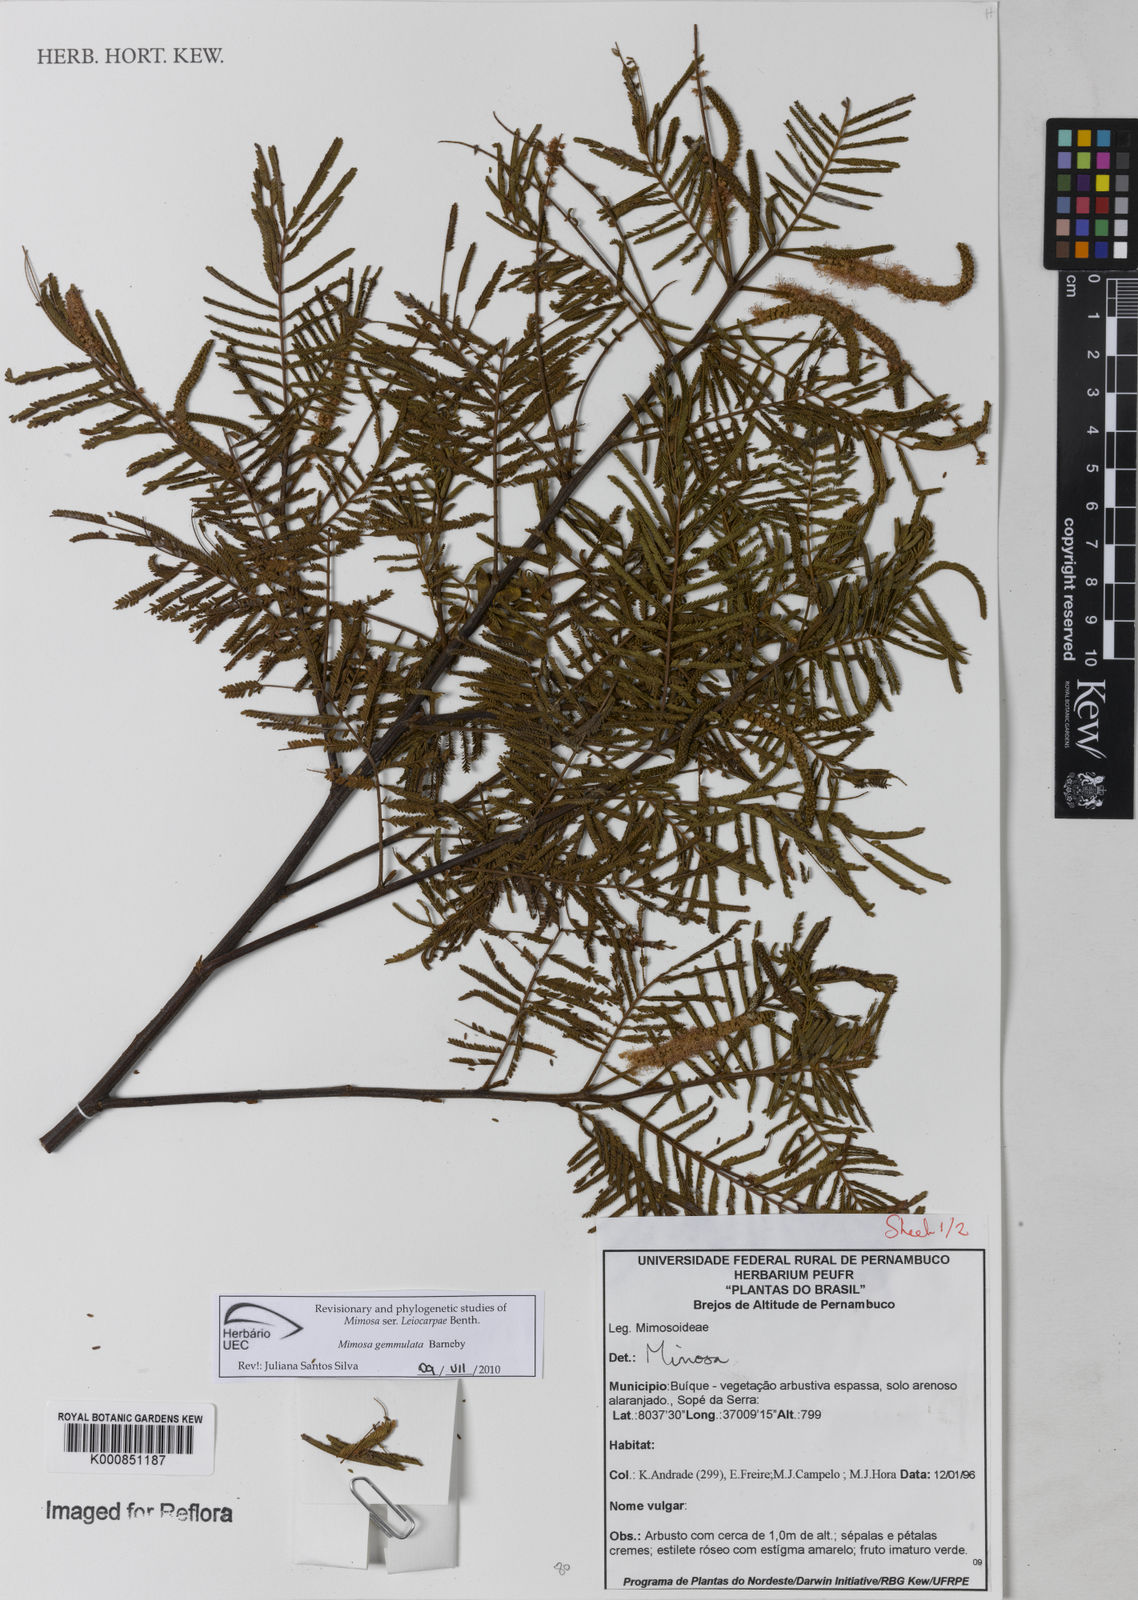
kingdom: Plantae
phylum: Tracheophyta
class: Magnoliopsida
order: Fabales
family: Fabaceae
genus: Mimosa
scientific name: Mimosa gemmulata
